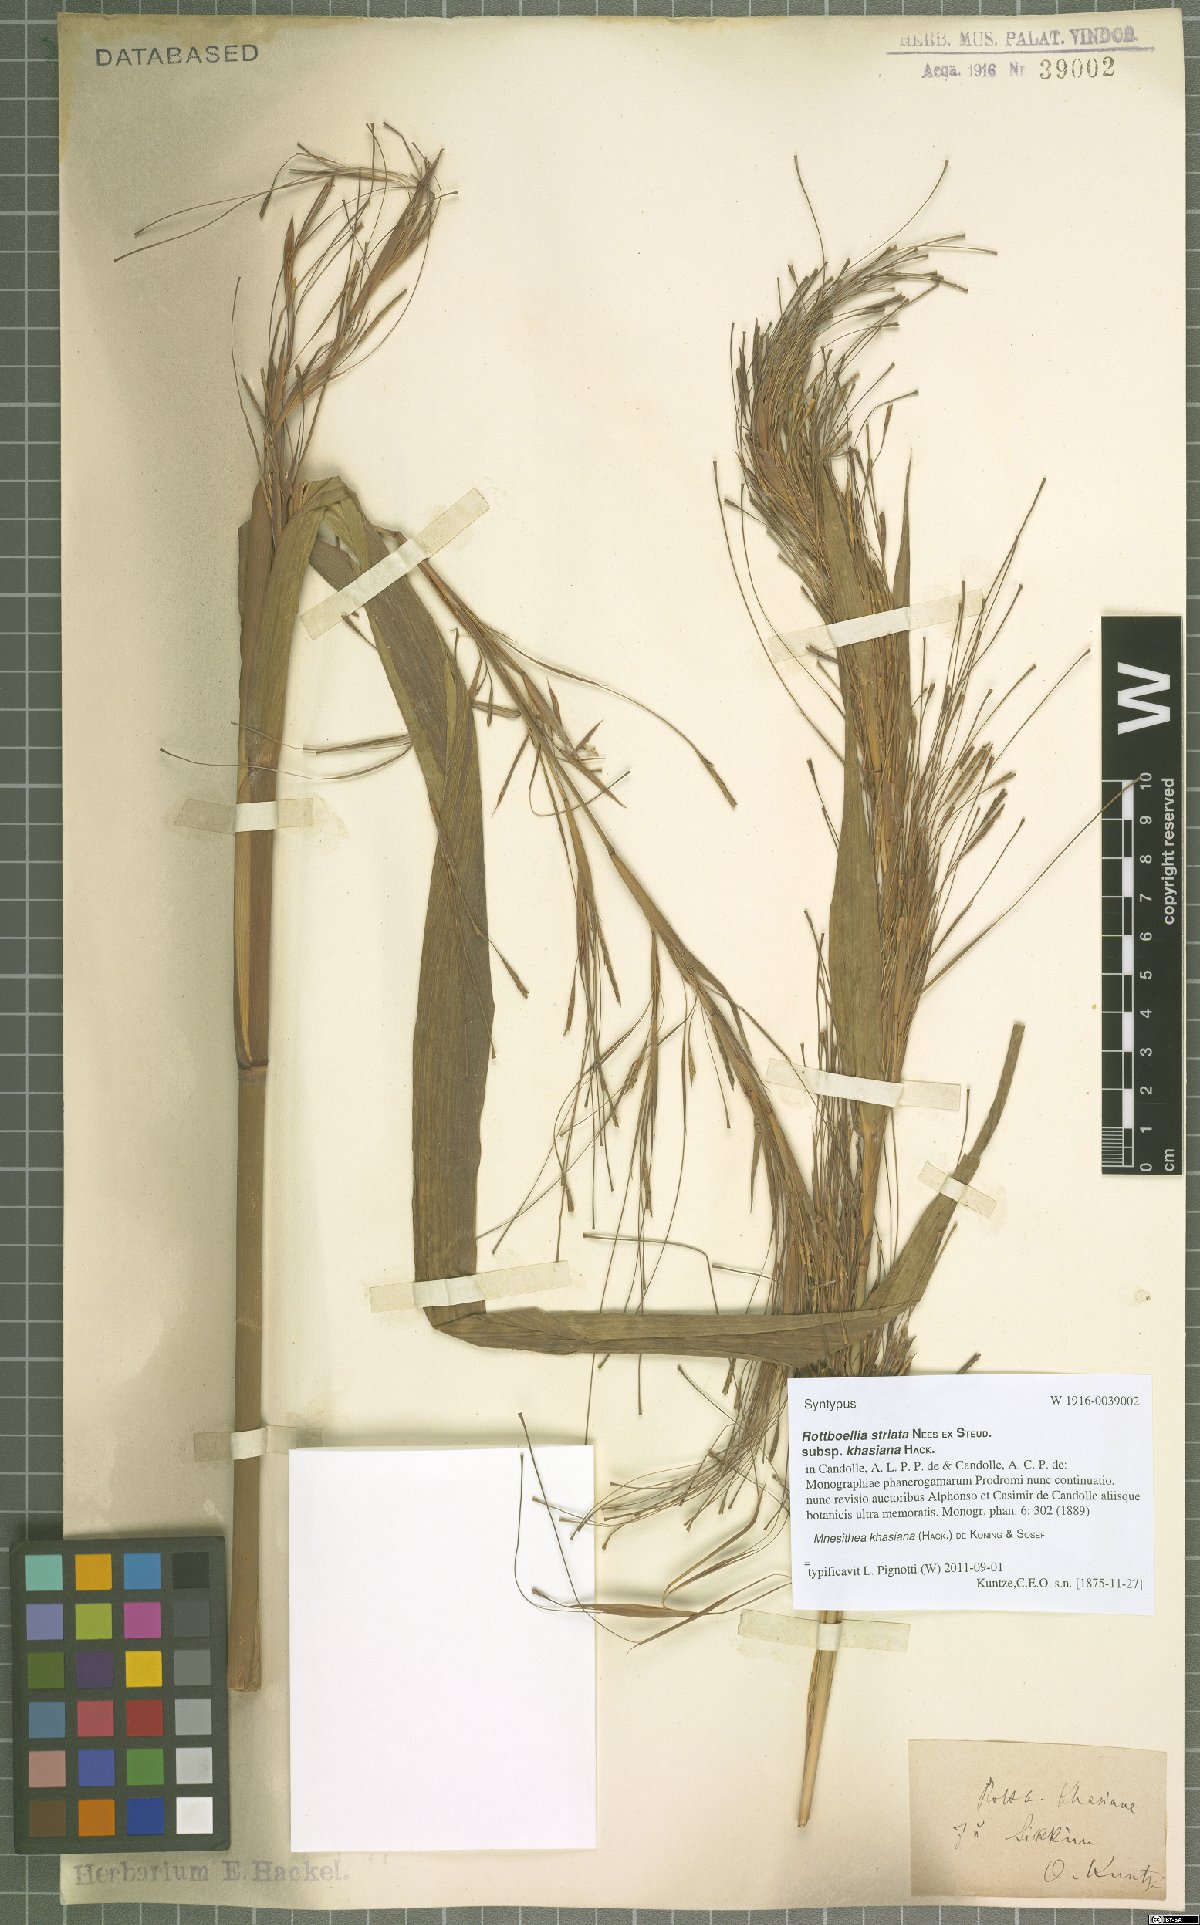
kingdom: Plantae
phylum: Tracheophyta
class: Liliopsida
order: Poales
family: Poaceae
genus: Rottboellia
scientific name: Rottboellia striata
